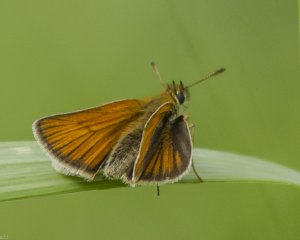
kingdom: Animalia
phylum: Arthropoda
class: Insecta
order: Lepidoptera
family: Hesperiidae
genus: Thymelicus
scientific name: Thymelicus lineola
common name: European Skipper
